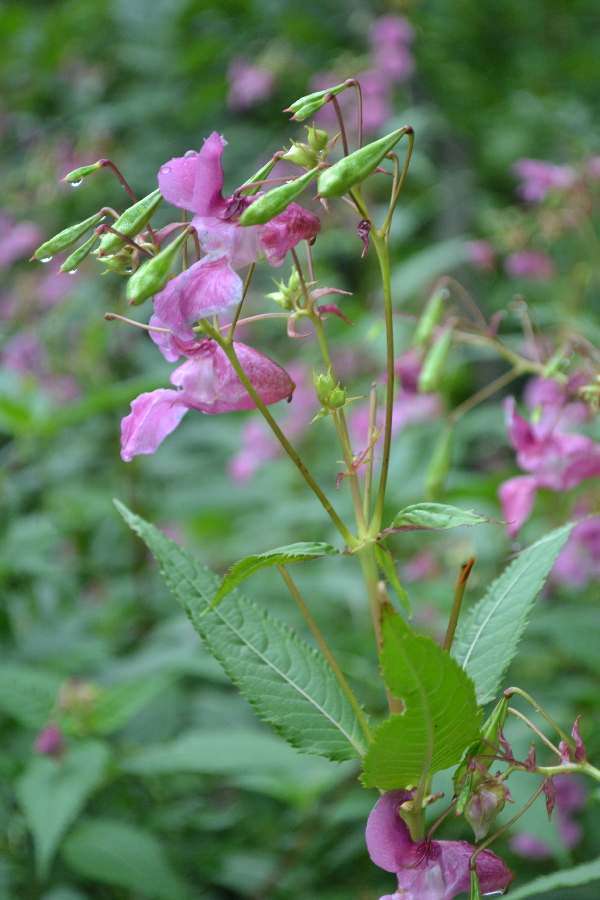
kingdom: Plantae
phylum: Tracheophyta
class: Magnoliopsida
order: Ericales
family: Balsaminaceae
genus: Impatiens
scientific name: Impatiens glandulifera
